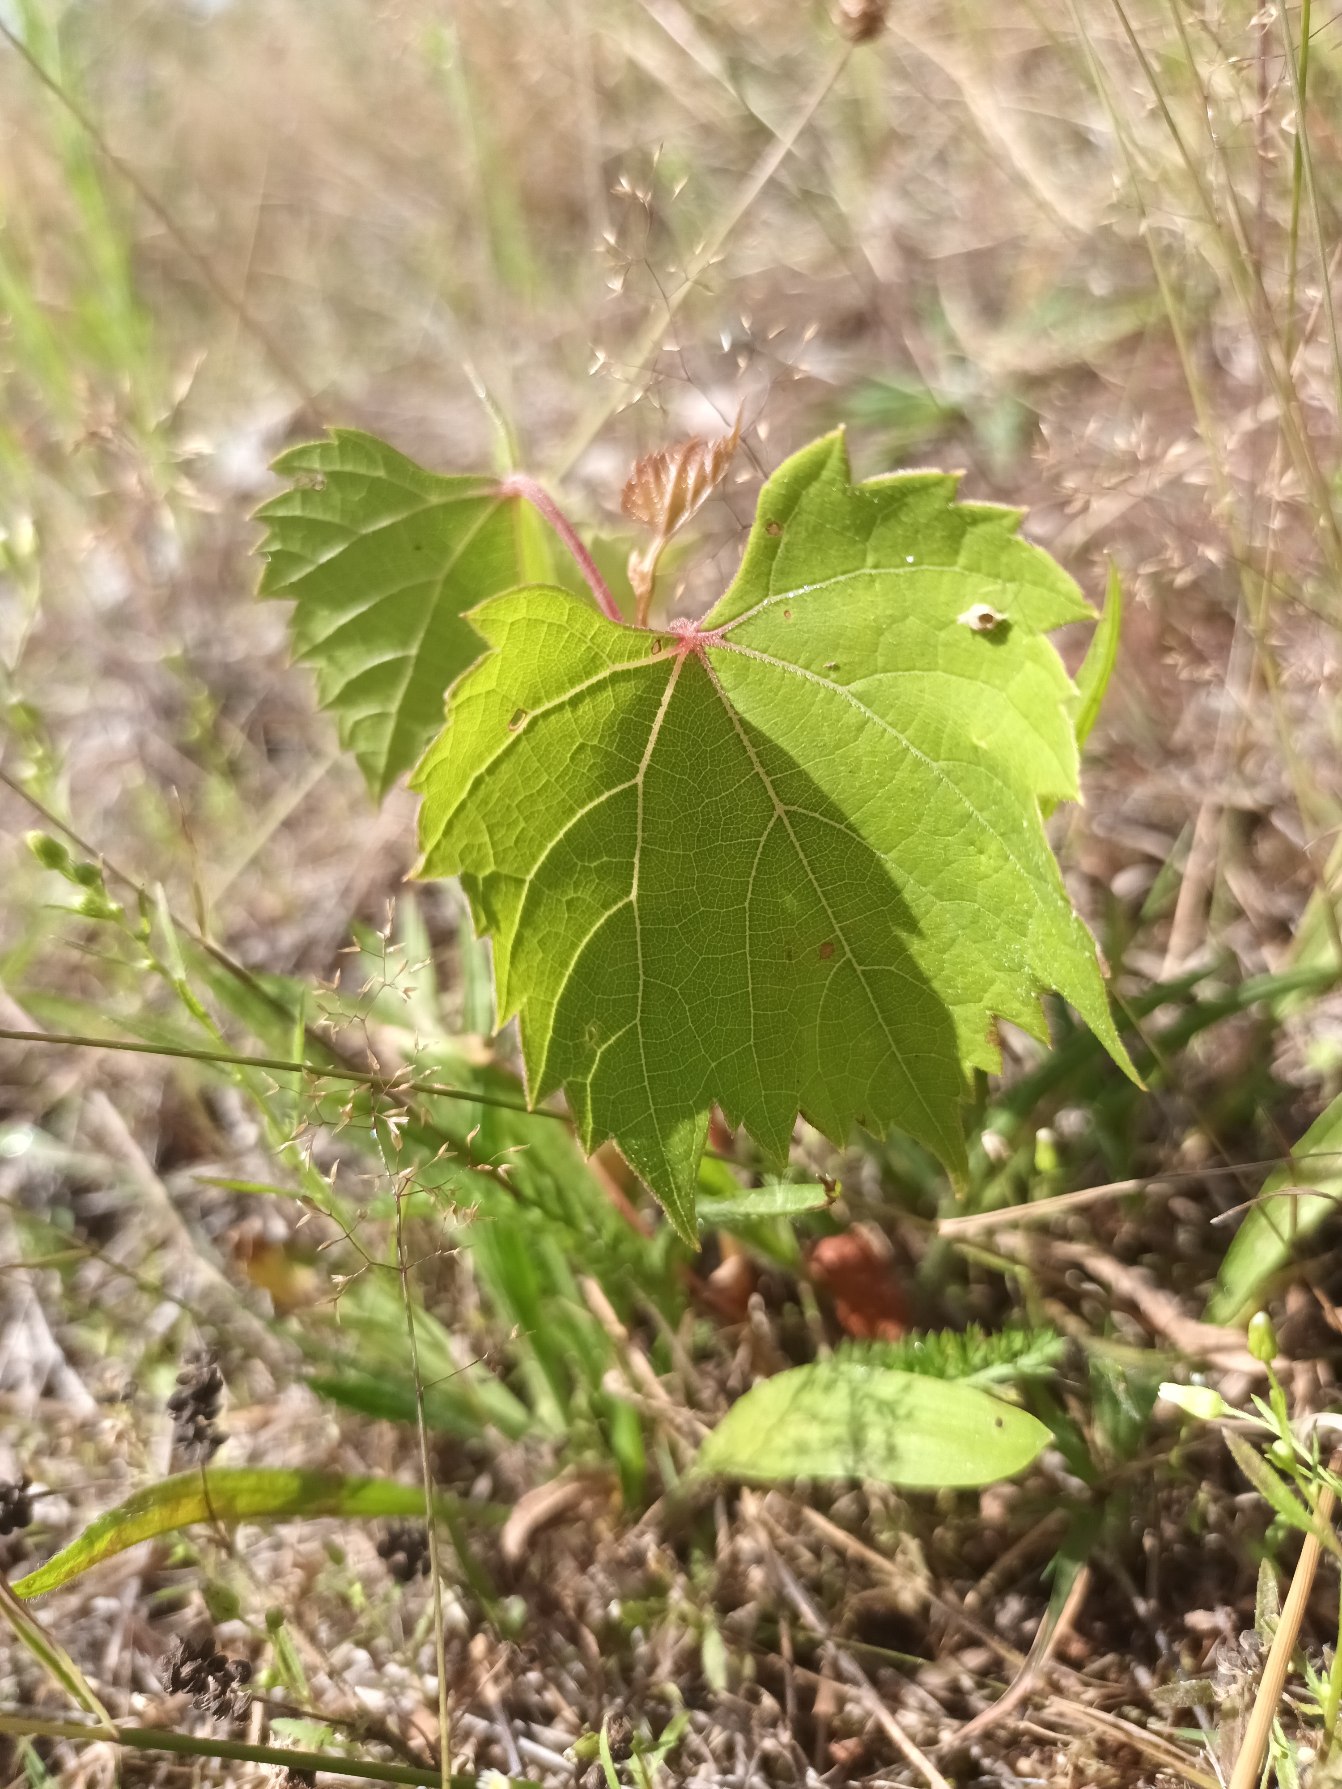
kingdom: Plantae
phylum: Tracheophyta
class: Magnoliopsida
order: Vitales
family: Vitaceae
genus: Vitis
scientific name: Vitis vinifera
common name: Almindelig vin
